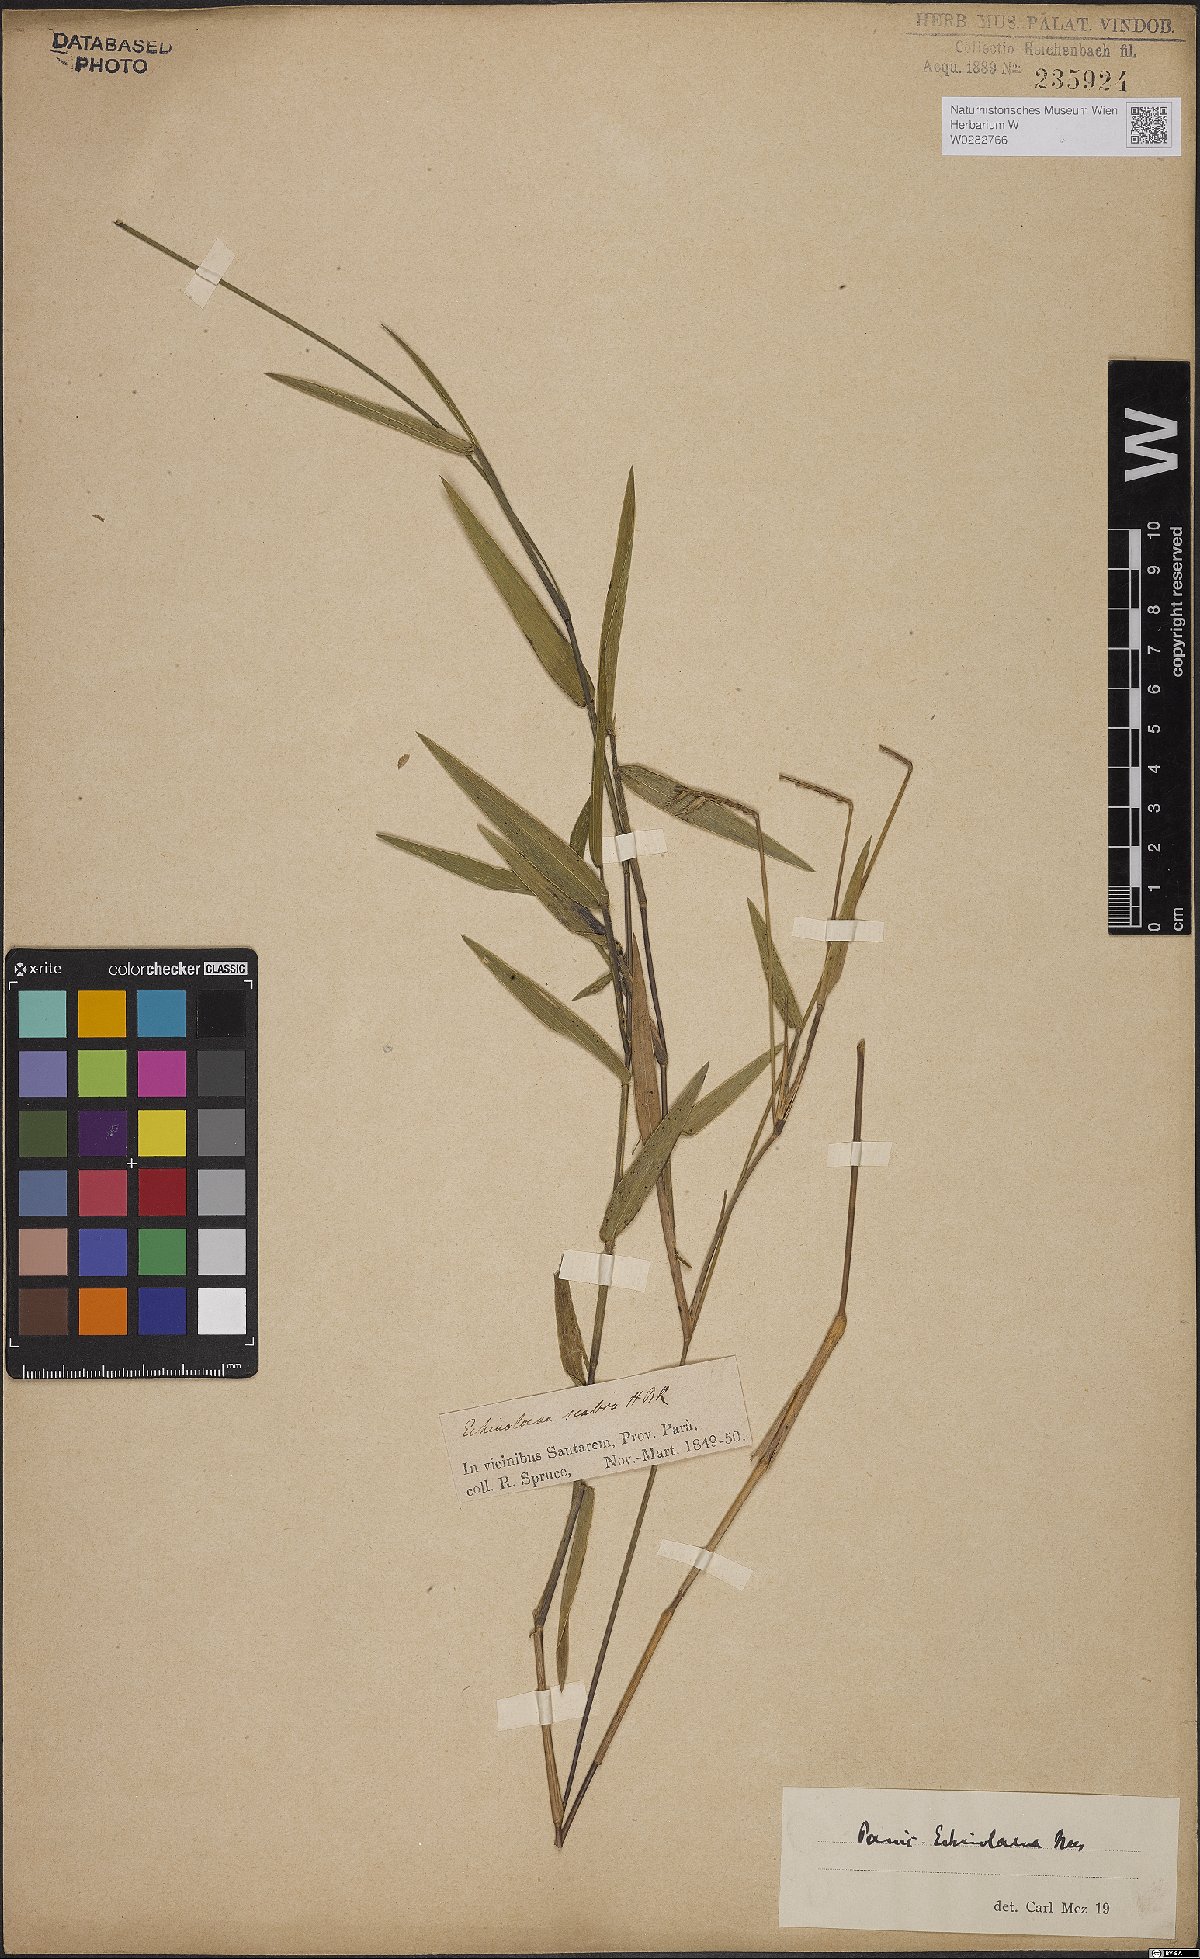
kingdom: Plantae
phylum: Tracheophyta
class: Liliopsida
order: Poales
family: Poaceae
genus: Echinolaena
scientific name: Echinolaena inflexa
